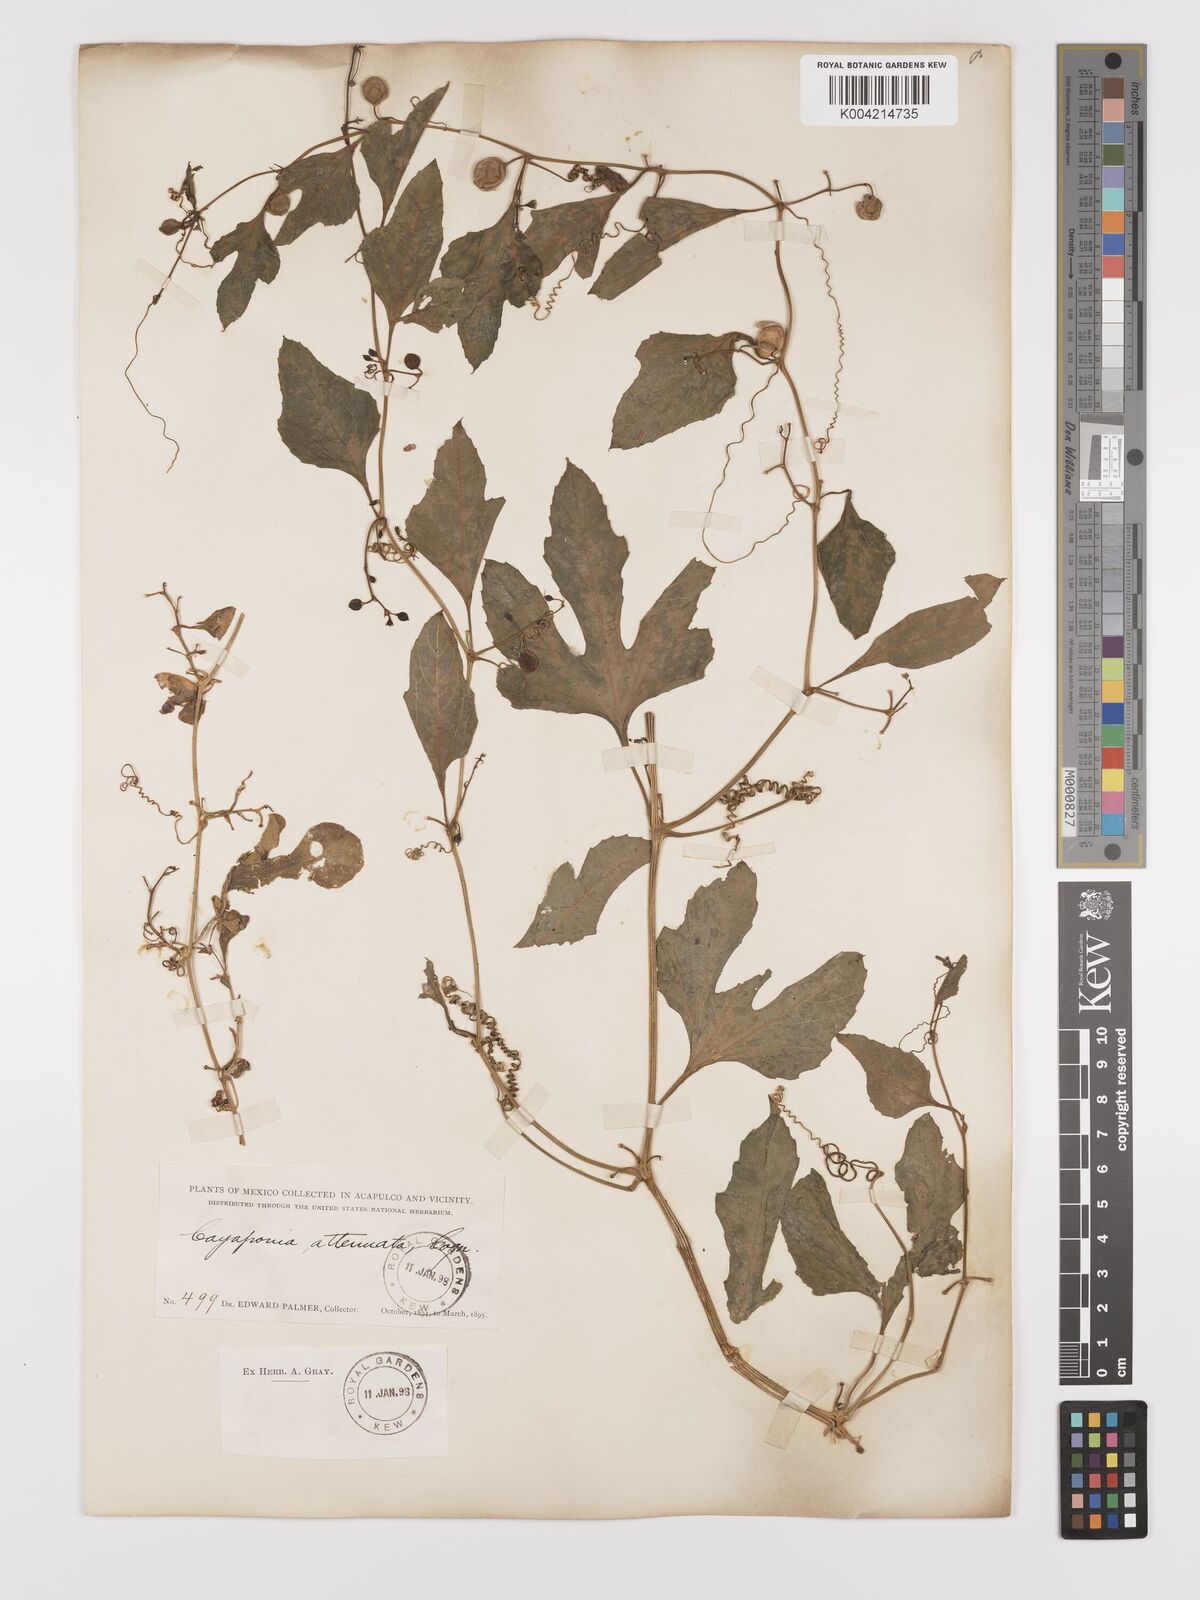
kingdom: Plantae
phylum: Tracheophyta
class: Magnoliopsida
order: Cucurbitales
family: Cucurbitaceae
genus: Cayaponia
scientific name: Cayaponia attenuata
